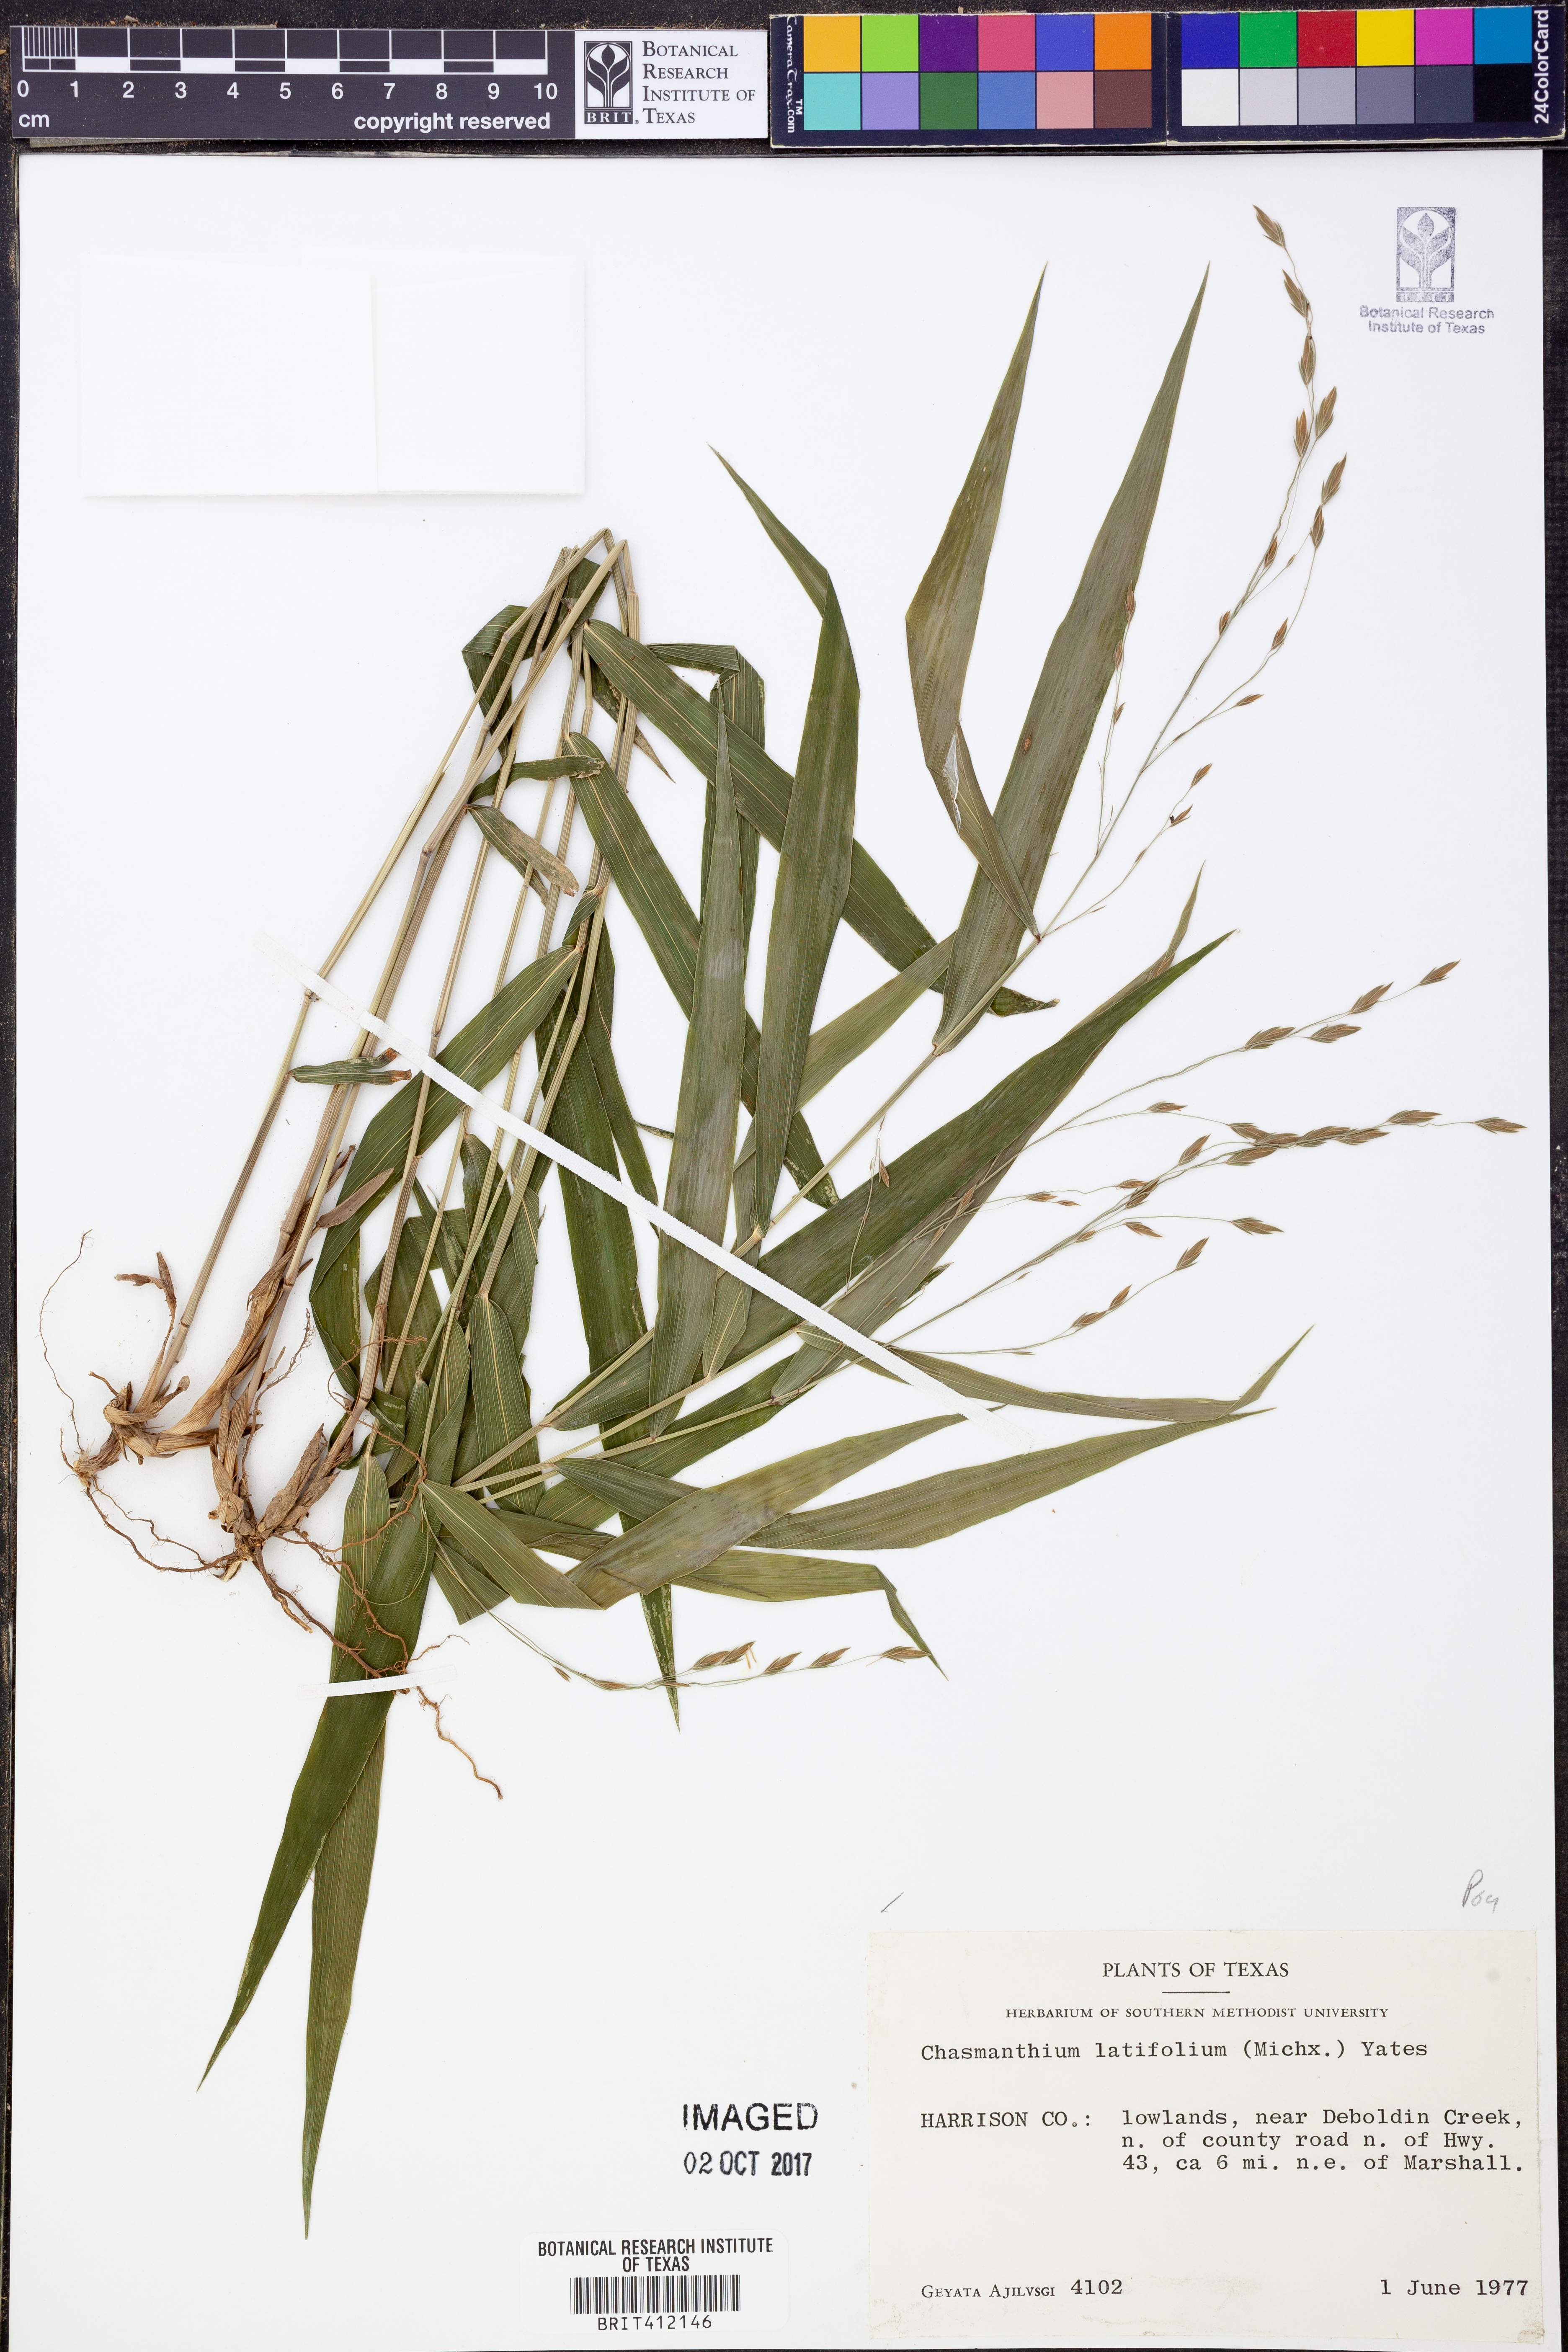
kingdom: Plantae
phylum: Tracheophyta
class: Liliopsida
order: Poales
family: Poaceae
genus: Chasmanthium
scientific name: Chasmanthium latifolium
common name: Broad-leaved chasmanthium
